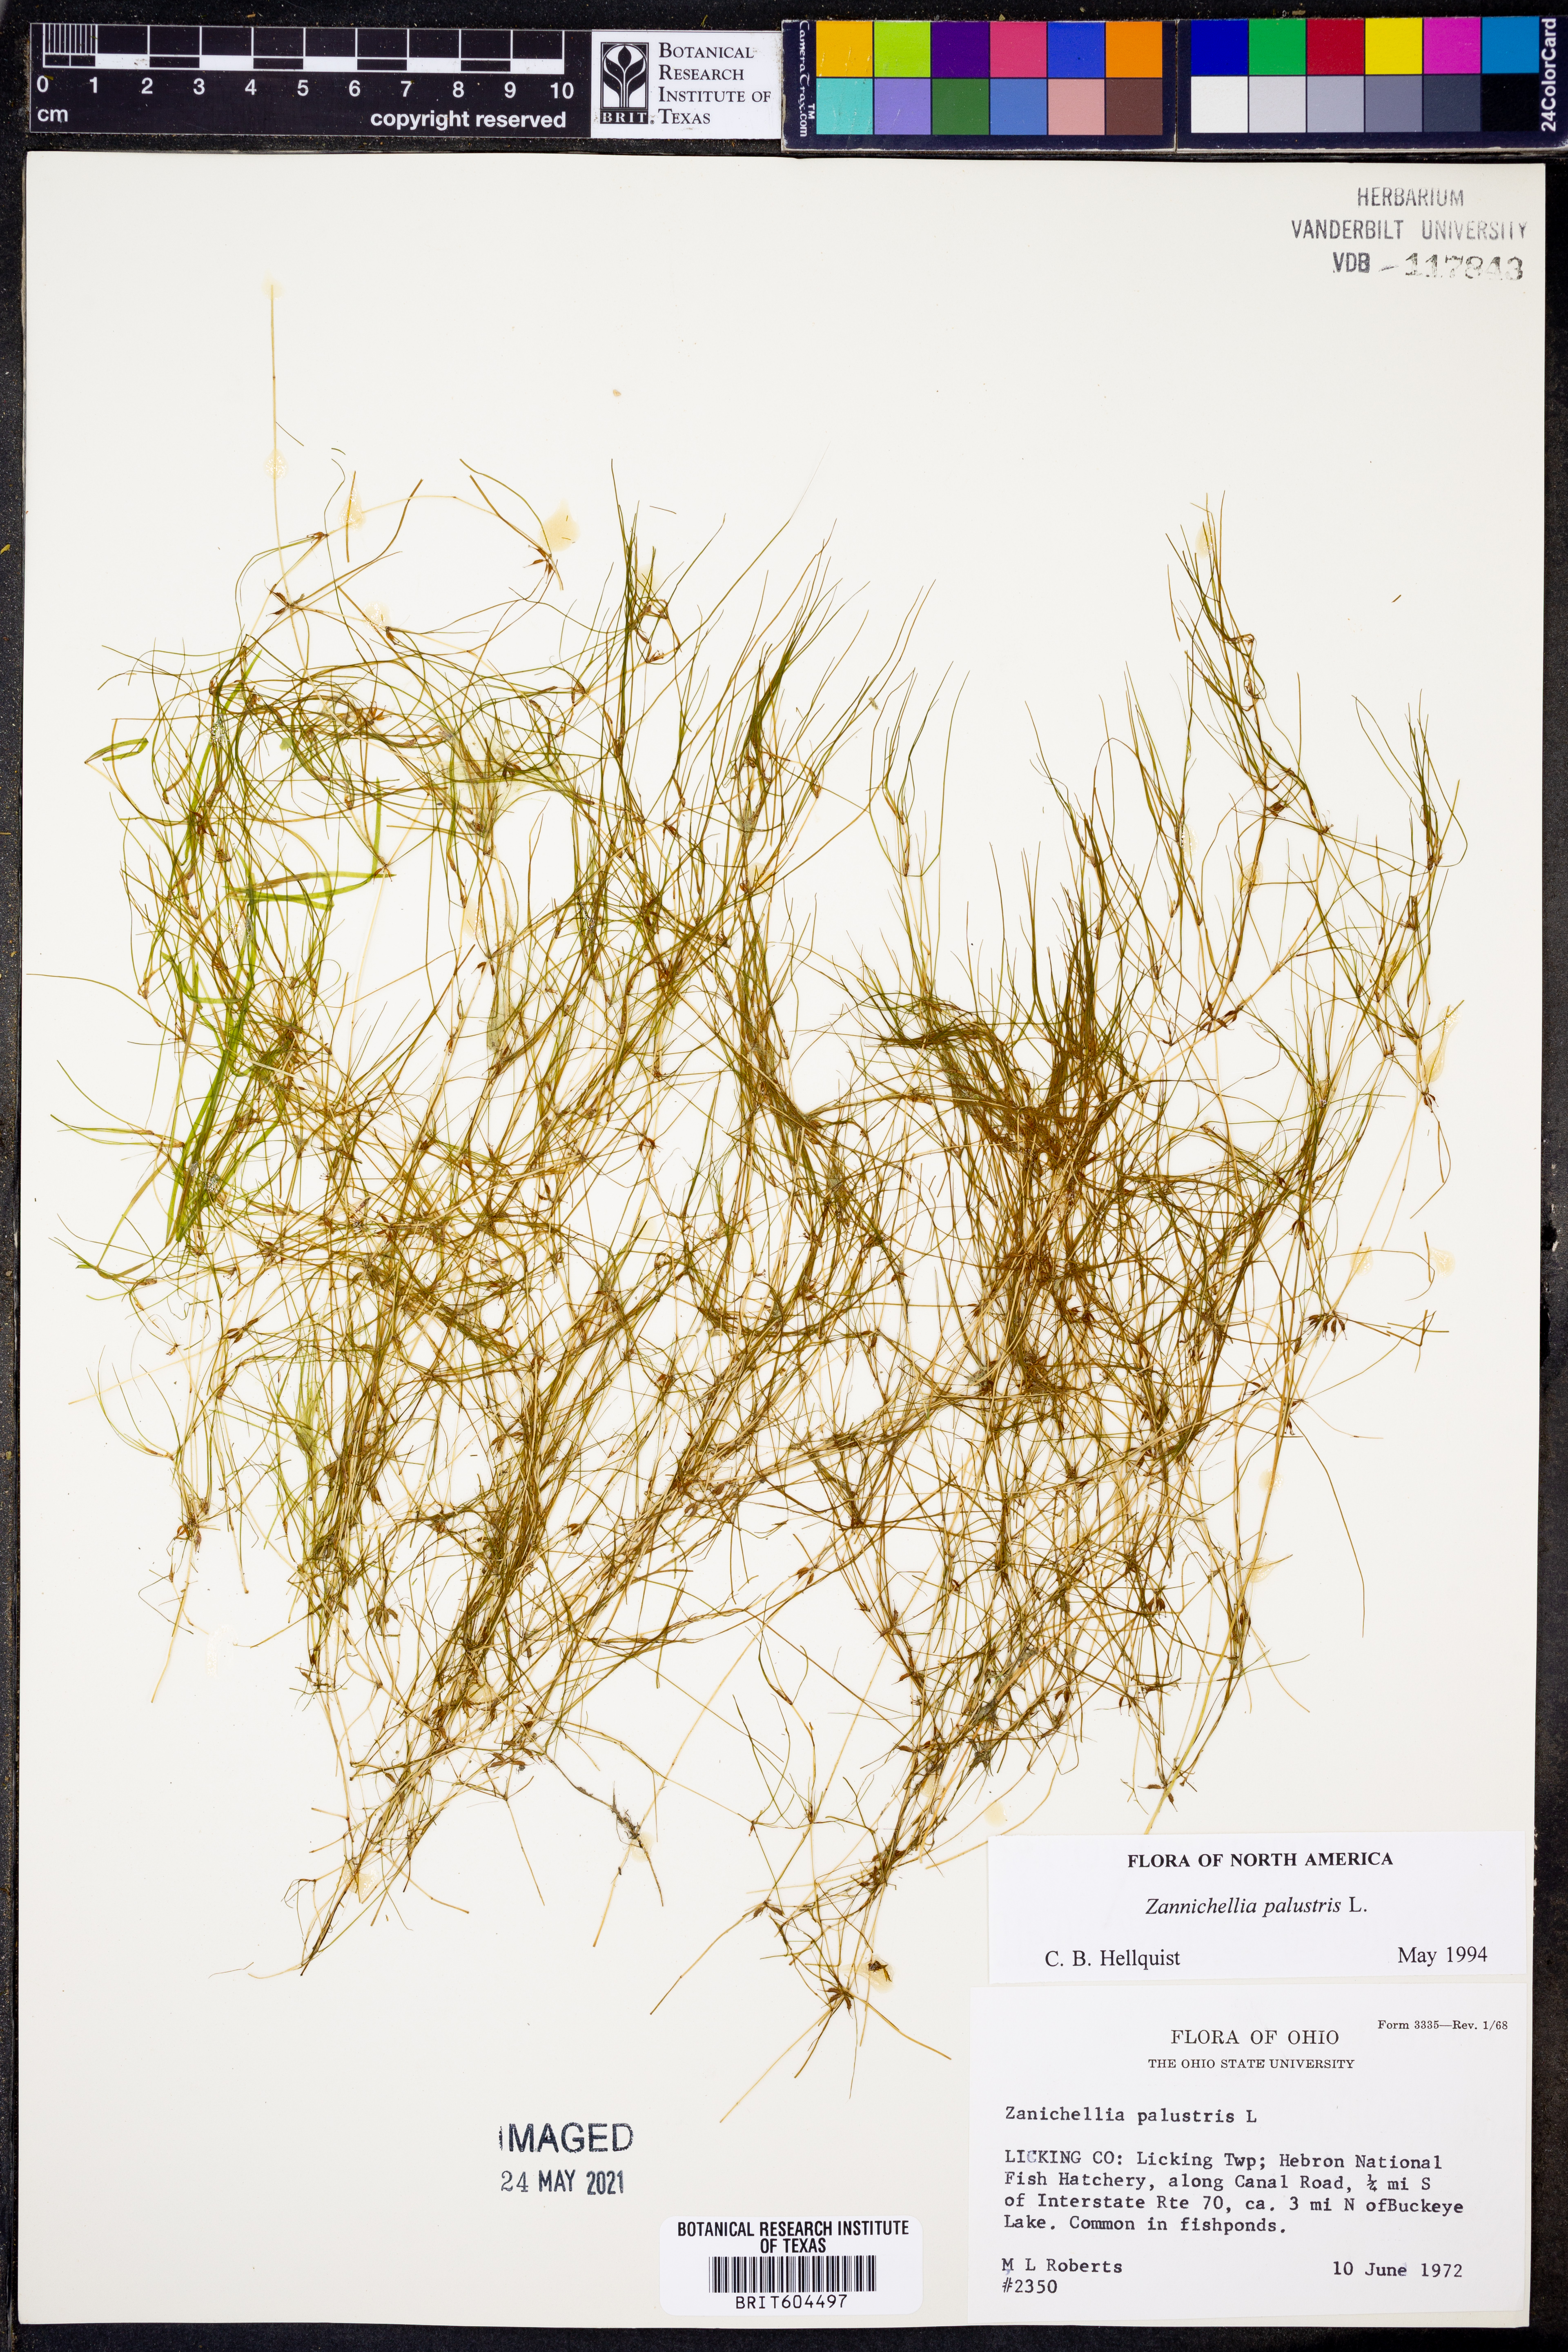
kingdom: Plantae
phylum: Tracheophyta
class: Liliopsida
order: Alismatales
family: Potamogetonaceae
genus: Zannichellia
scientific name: Zannichellia palustris
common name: Horned pondweed
